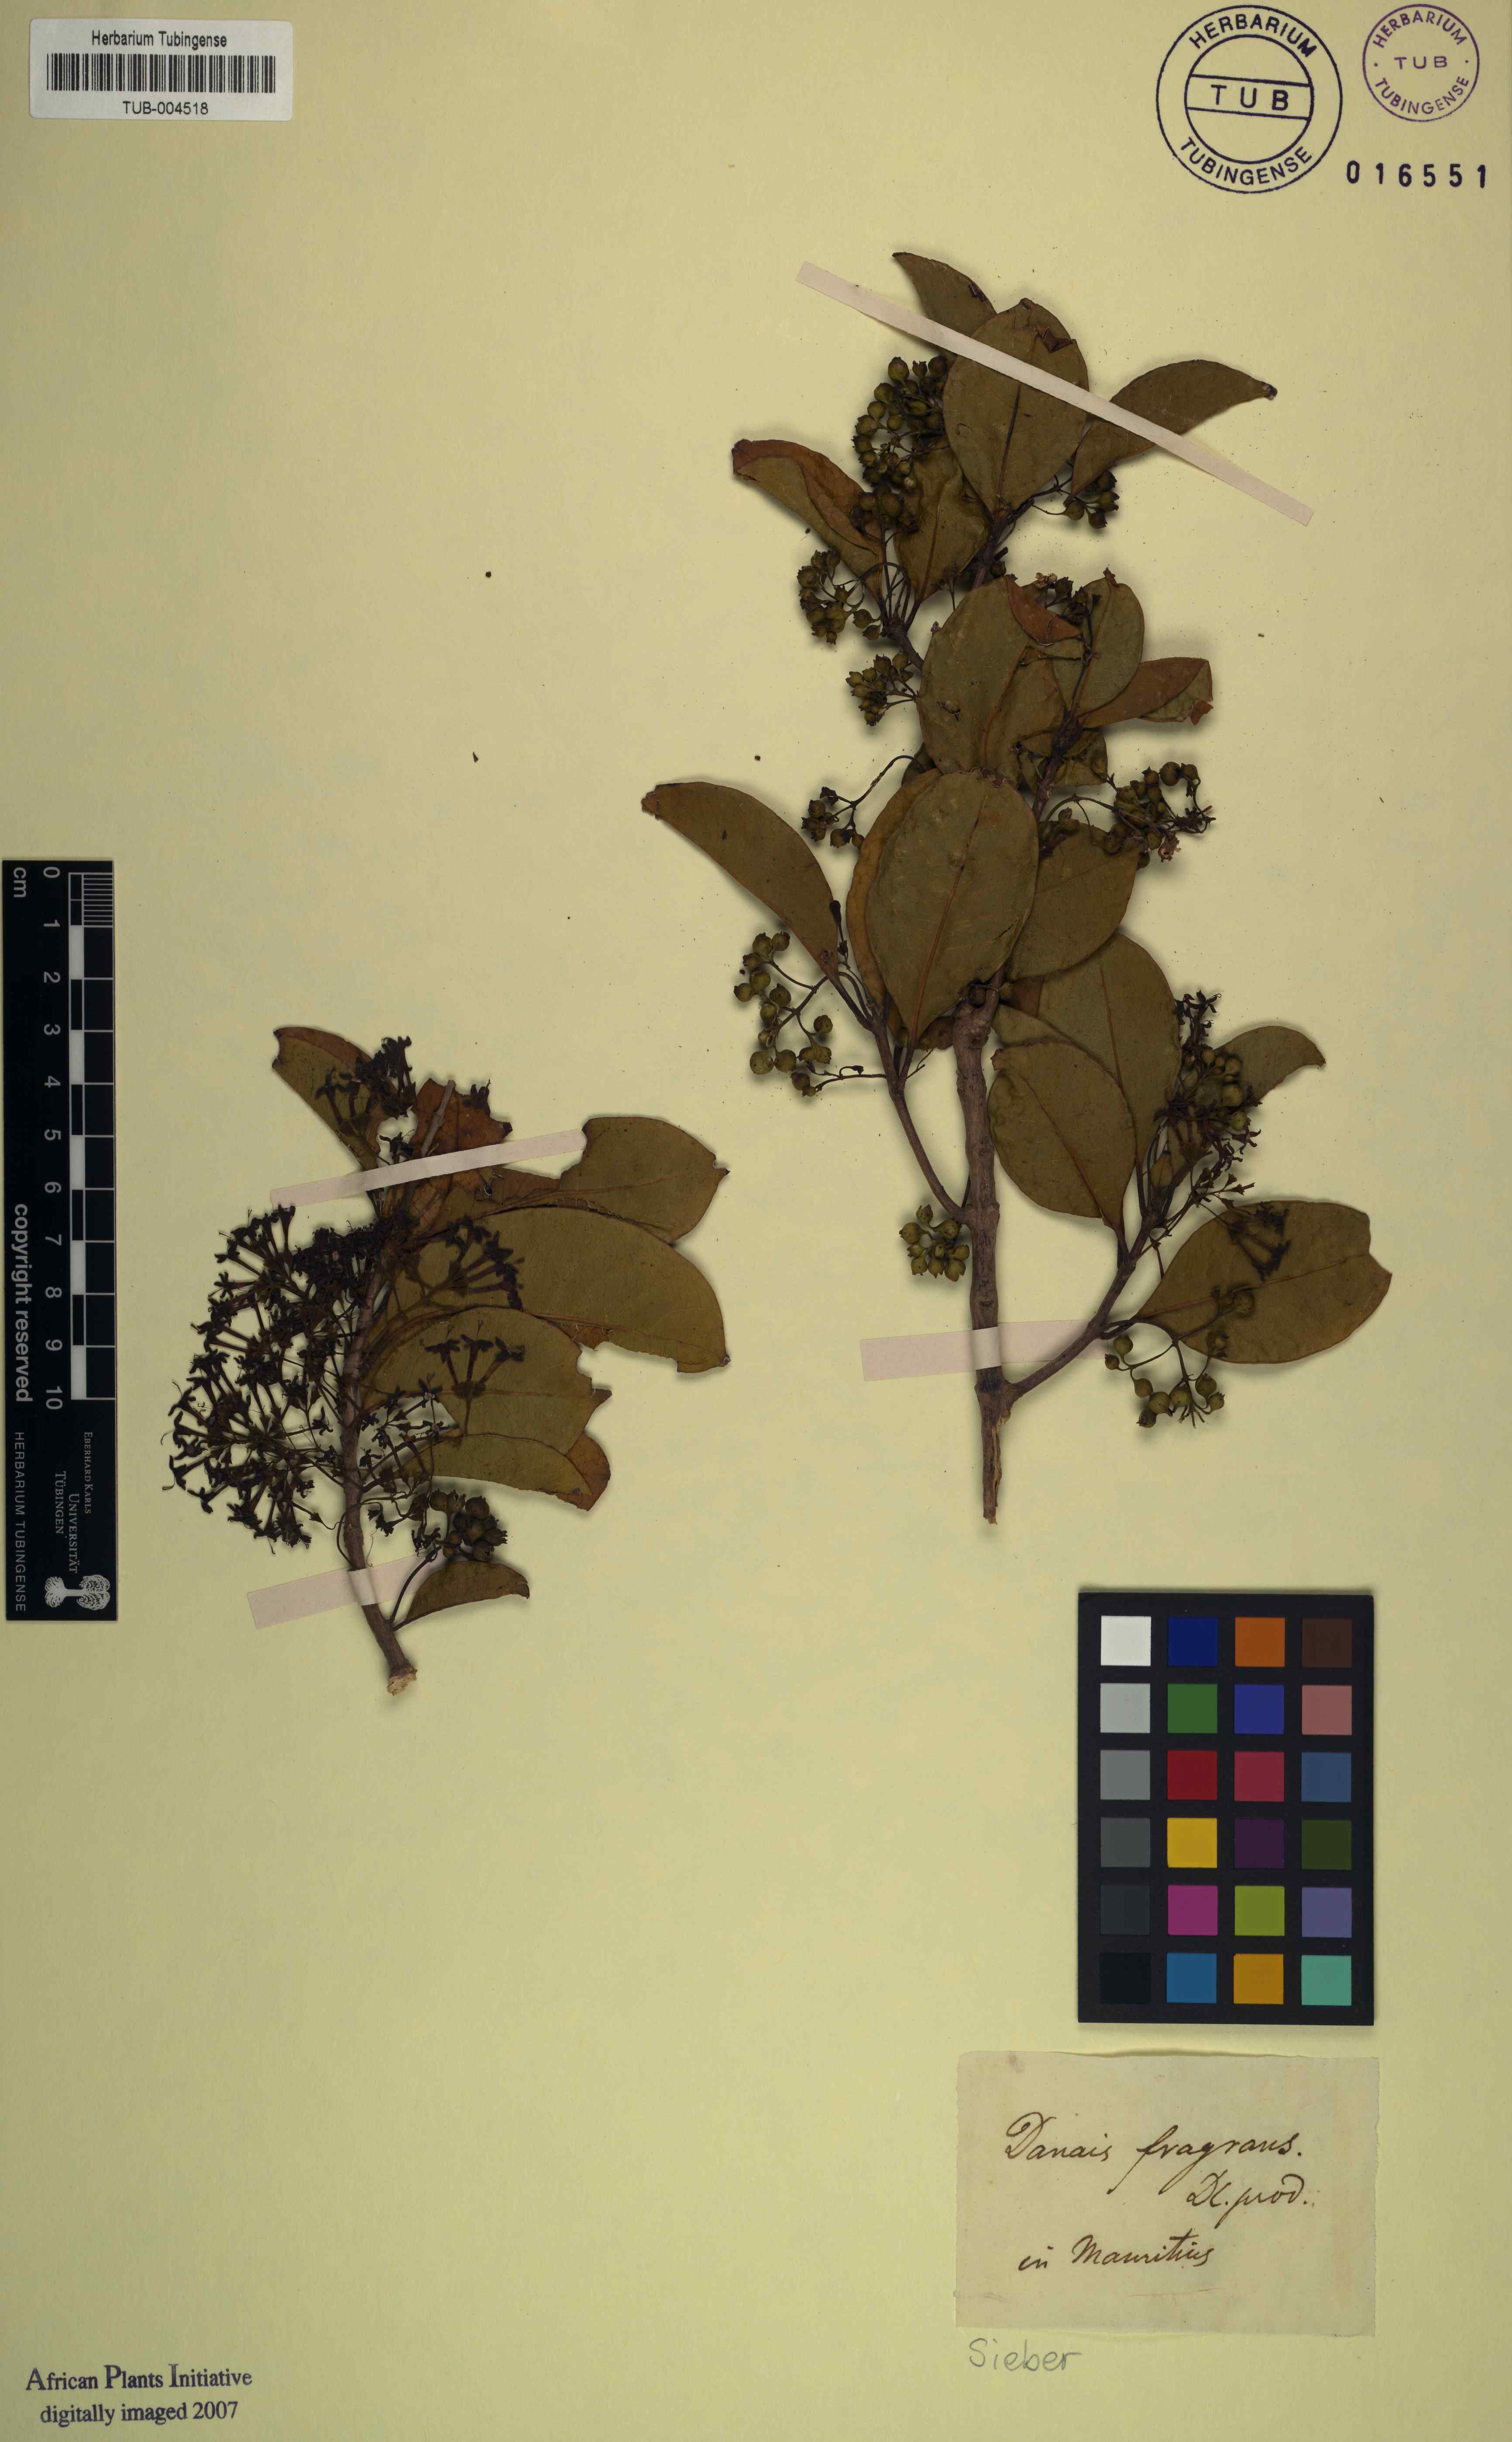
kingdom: Plantae
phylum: Tracheophyta
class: Magnoliopsida
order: Gentianales
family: Rubiaceae
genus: Danais
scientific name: Danais fragrans
